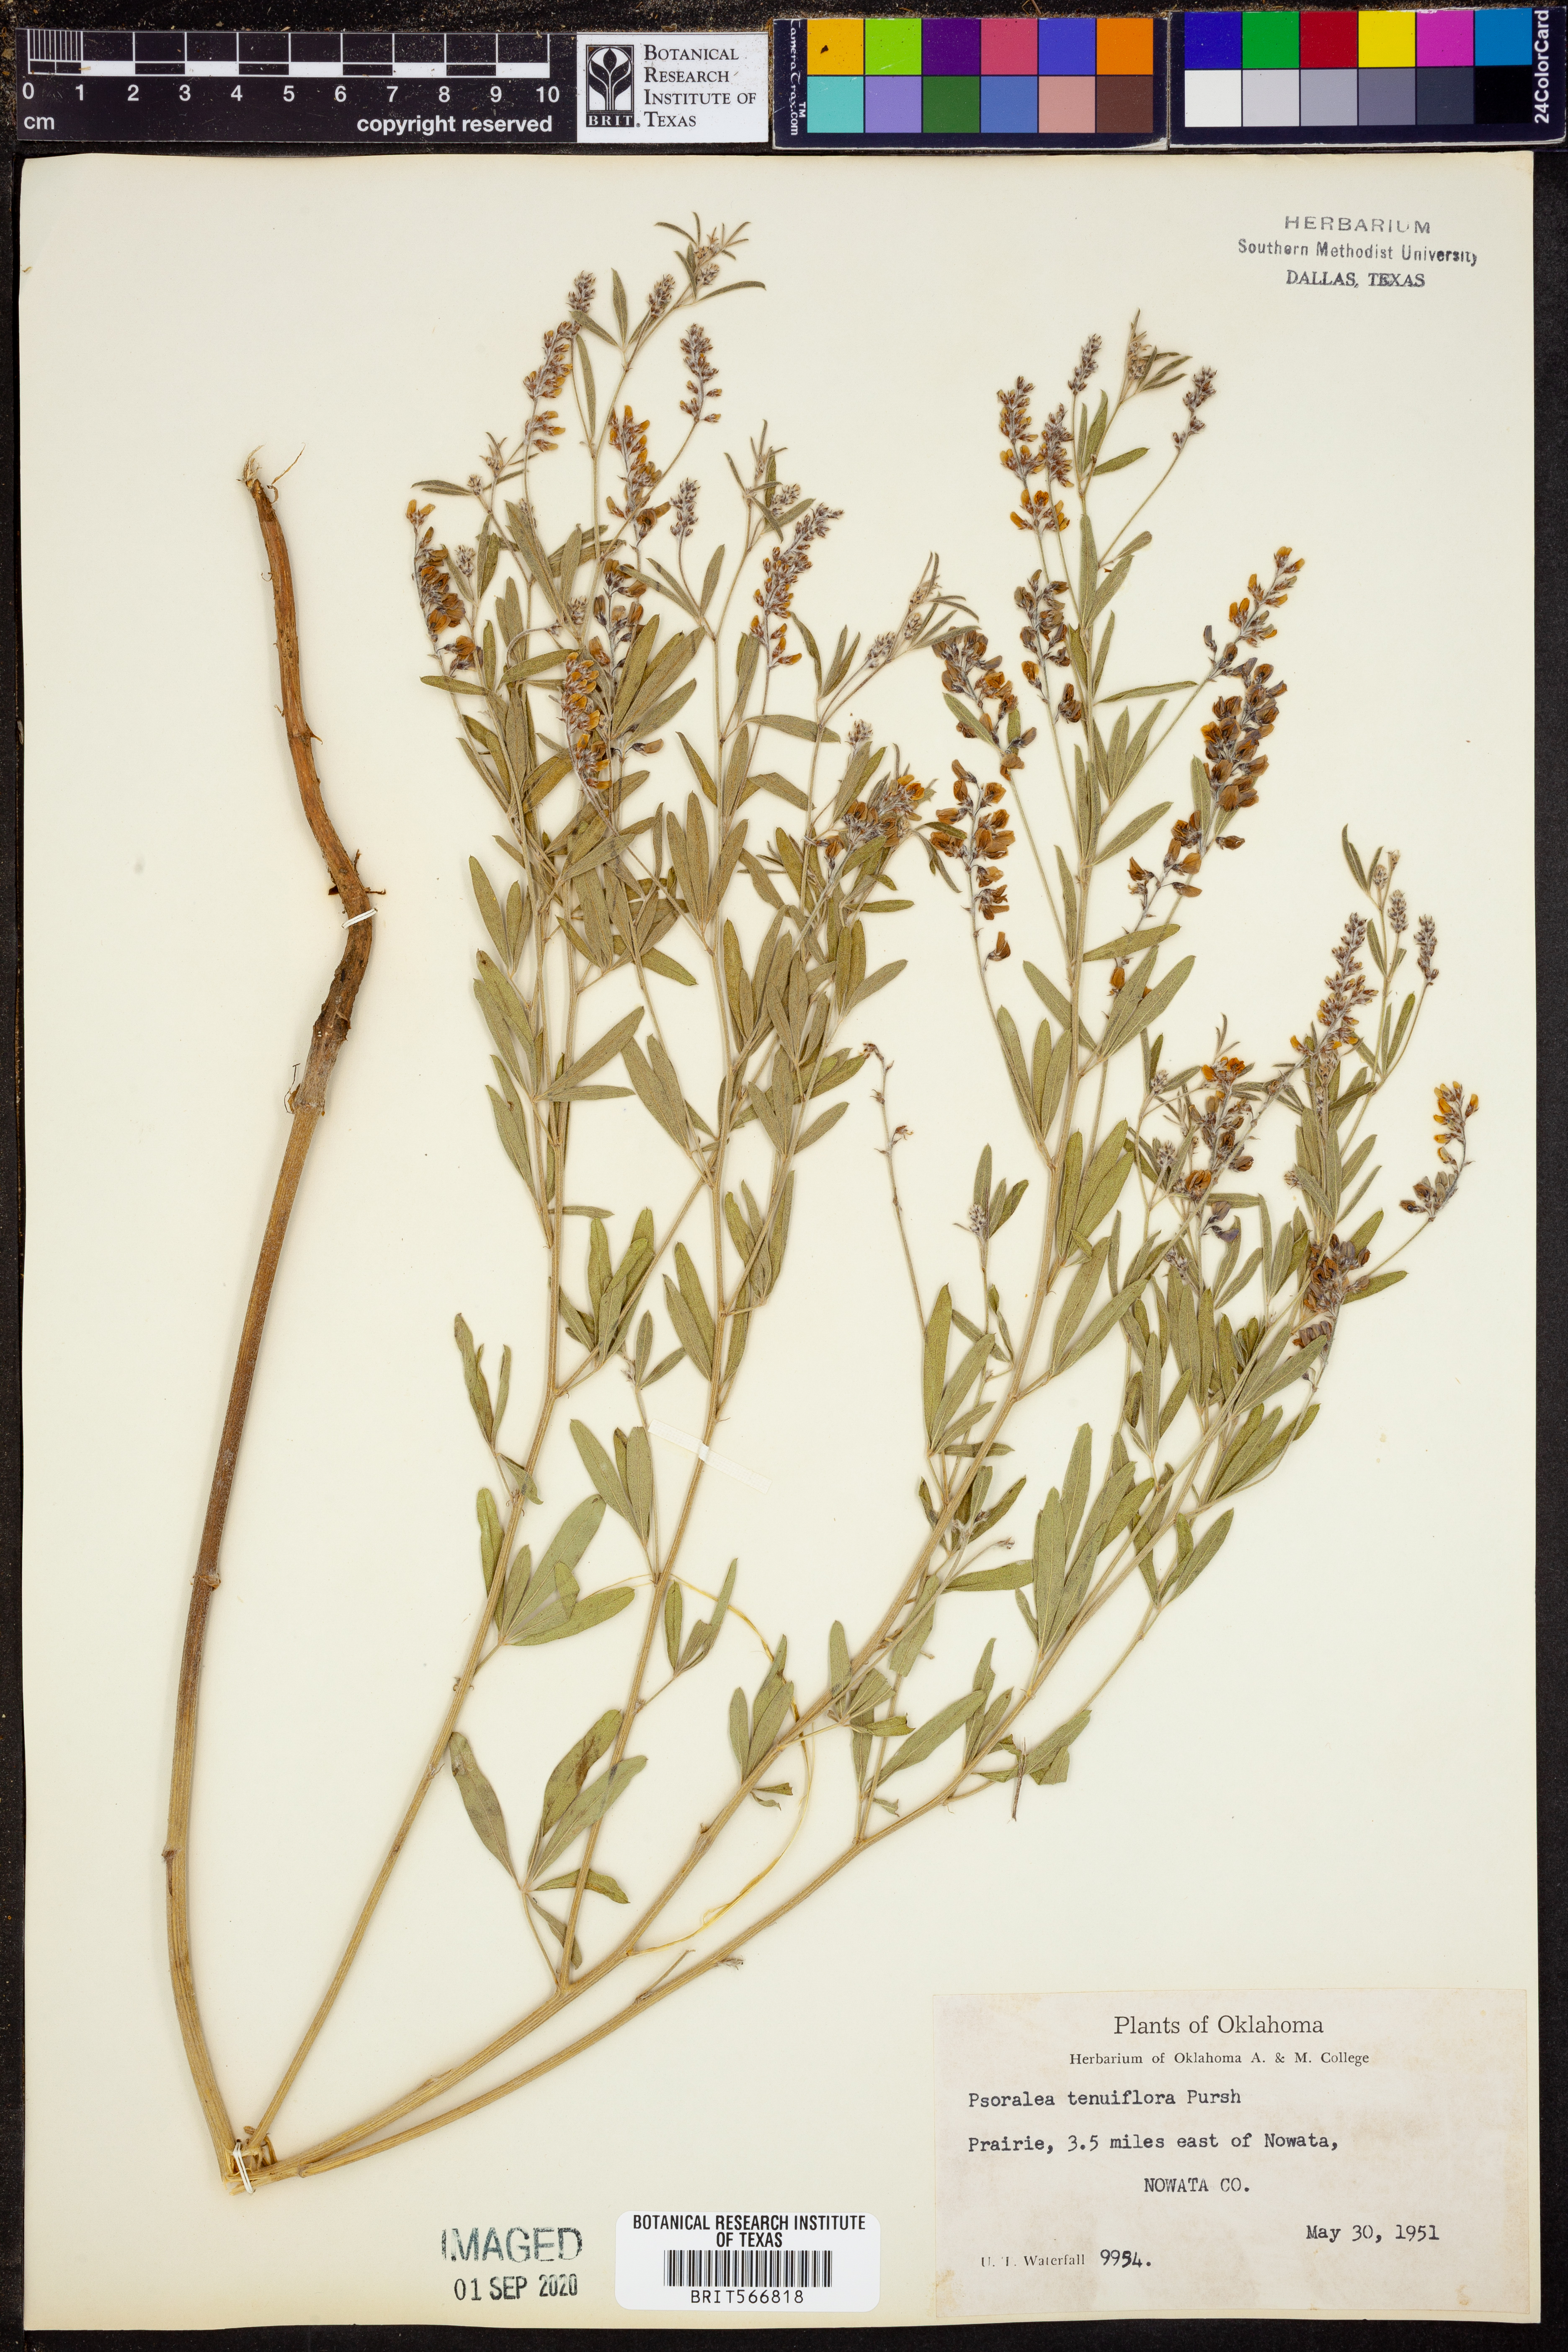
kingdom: Plantae
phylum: Tracheophyta
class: Magnoliopsida
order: Fabales
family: Fabaceae
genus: Pediomelum
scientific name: Pediomelum tenuiflorum
